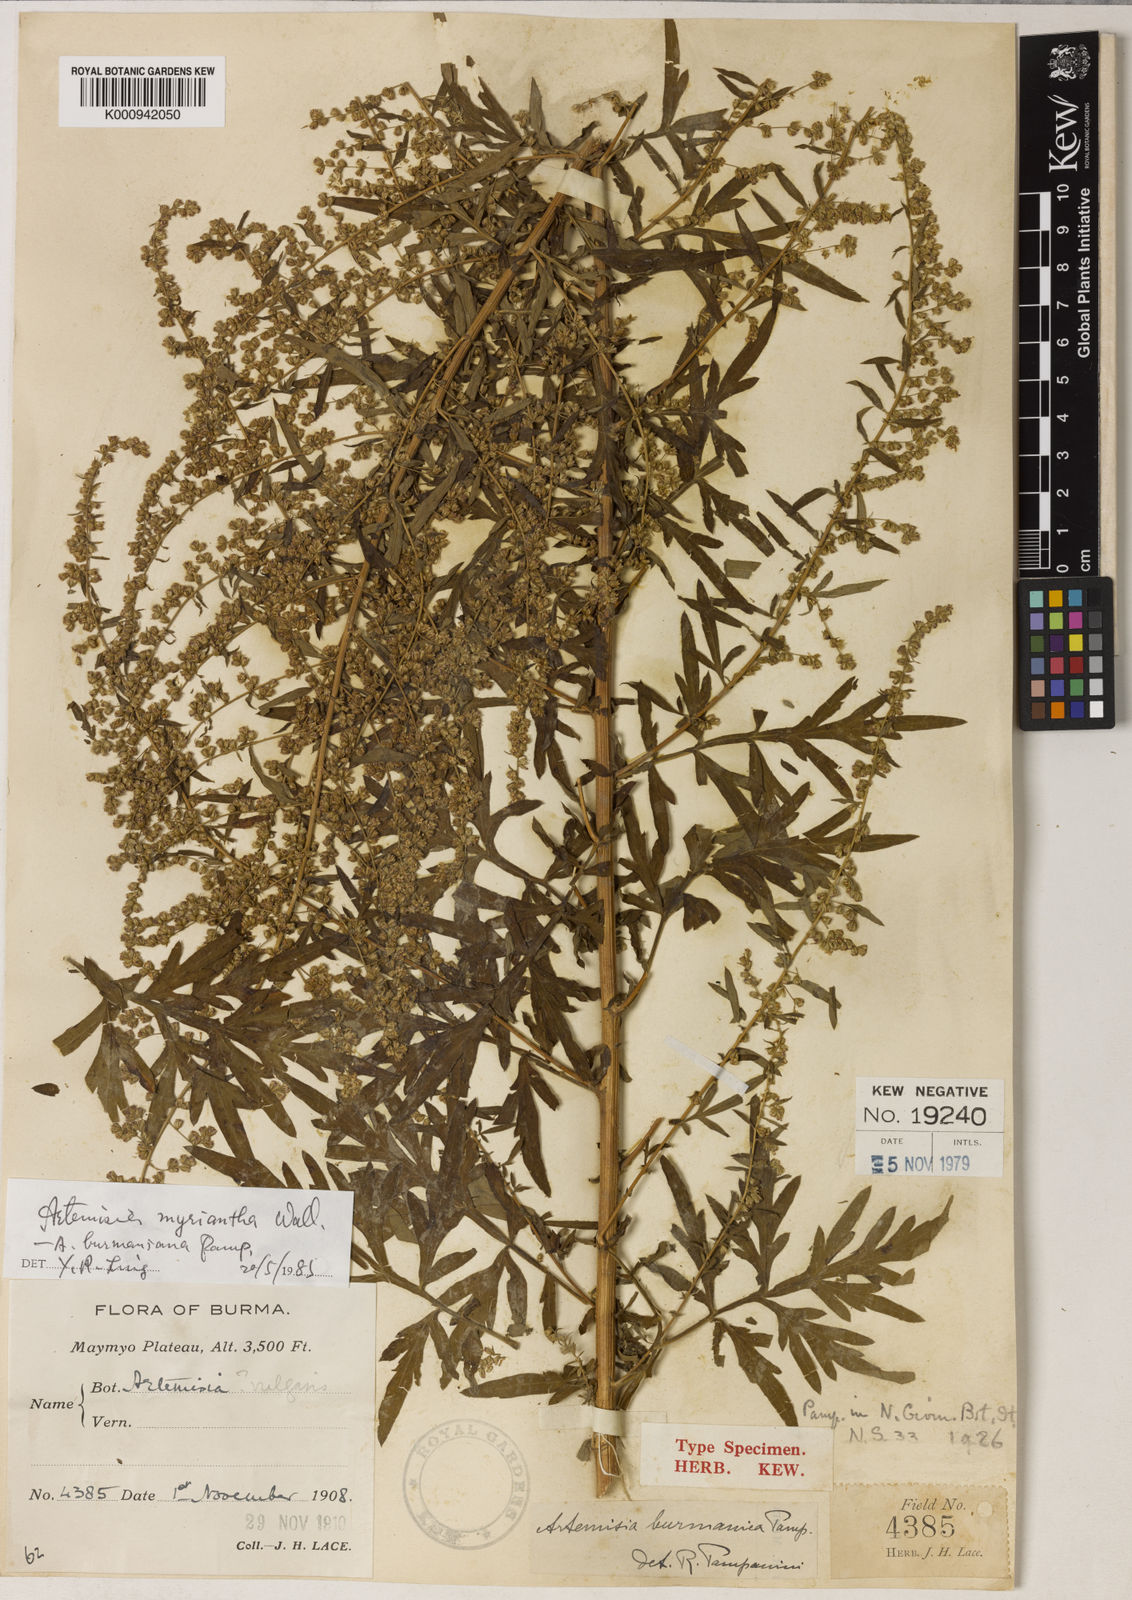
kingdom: Plantae
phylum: Tracheophyta
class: Magnoliopsida
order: Asterales
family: Asteraceae
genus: Artemisia
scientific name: Artemisia myriantha
